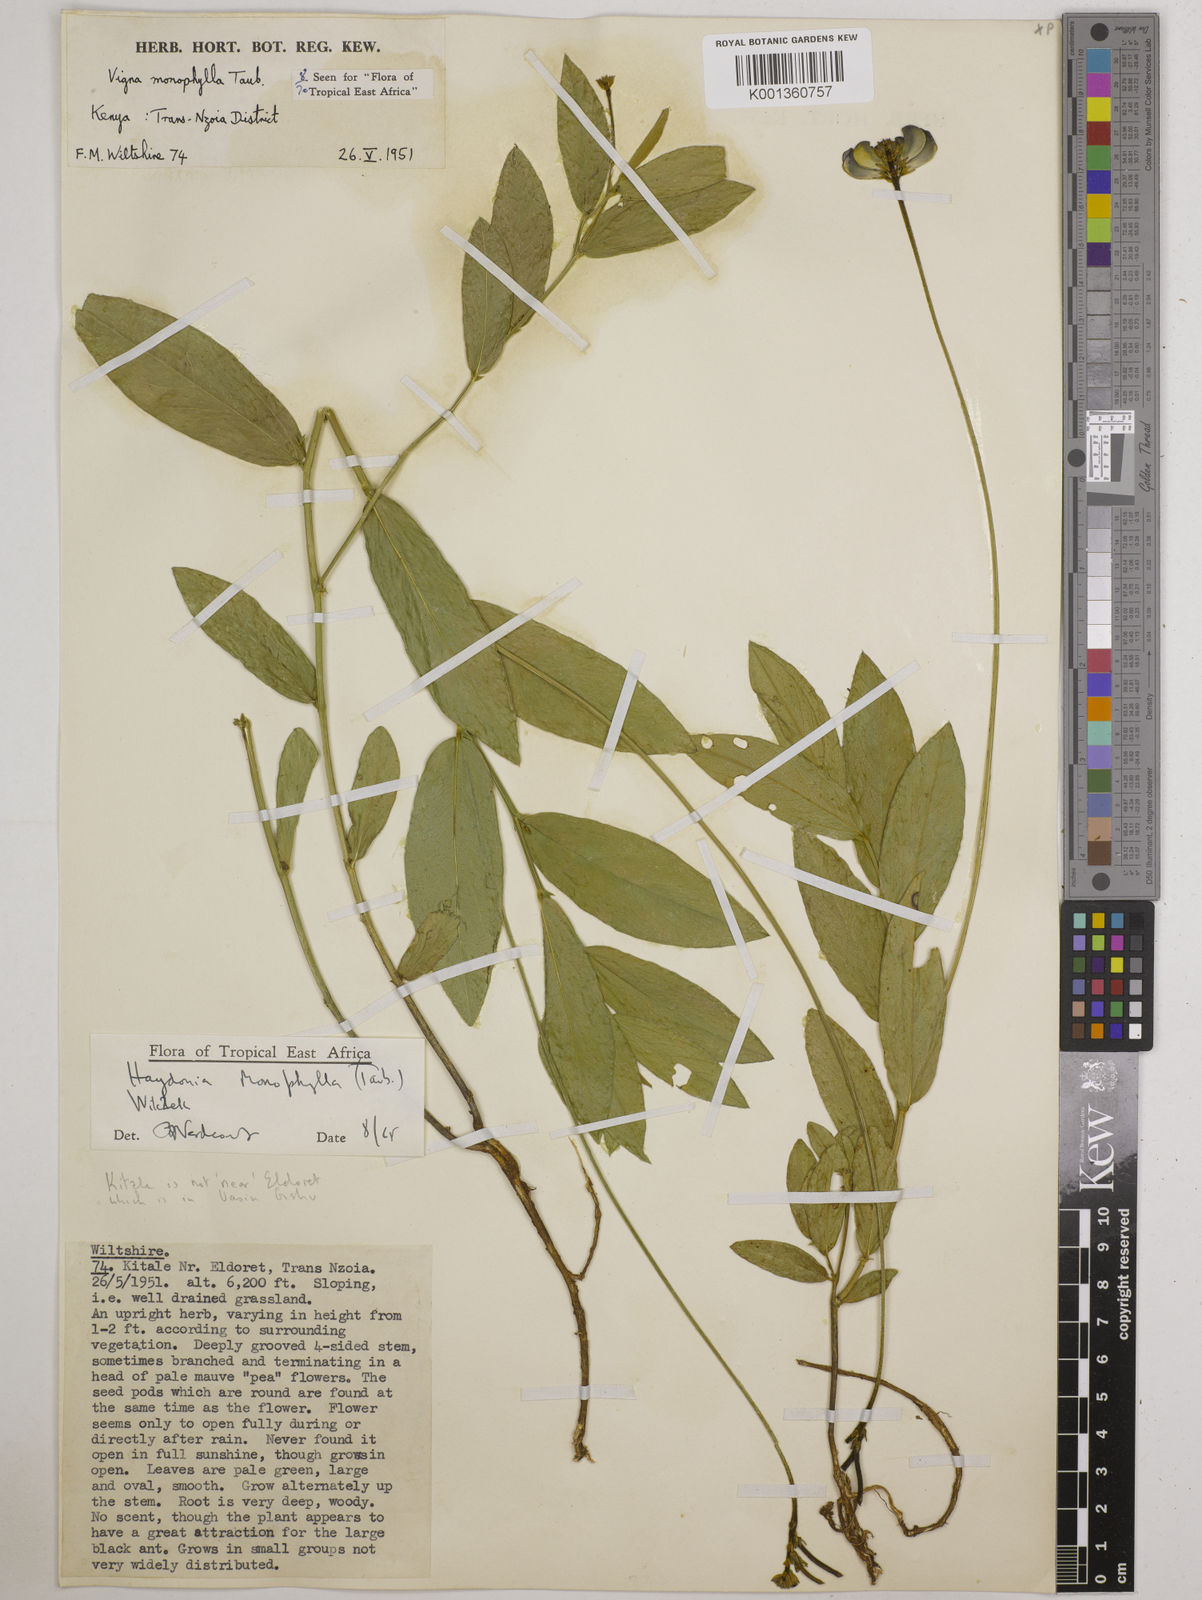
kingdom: Plantae
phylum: Tracheophyta
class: Magnoliopsida
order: Fabales
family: Fabaceae
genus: Vigna
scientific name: Vigna monophylla
